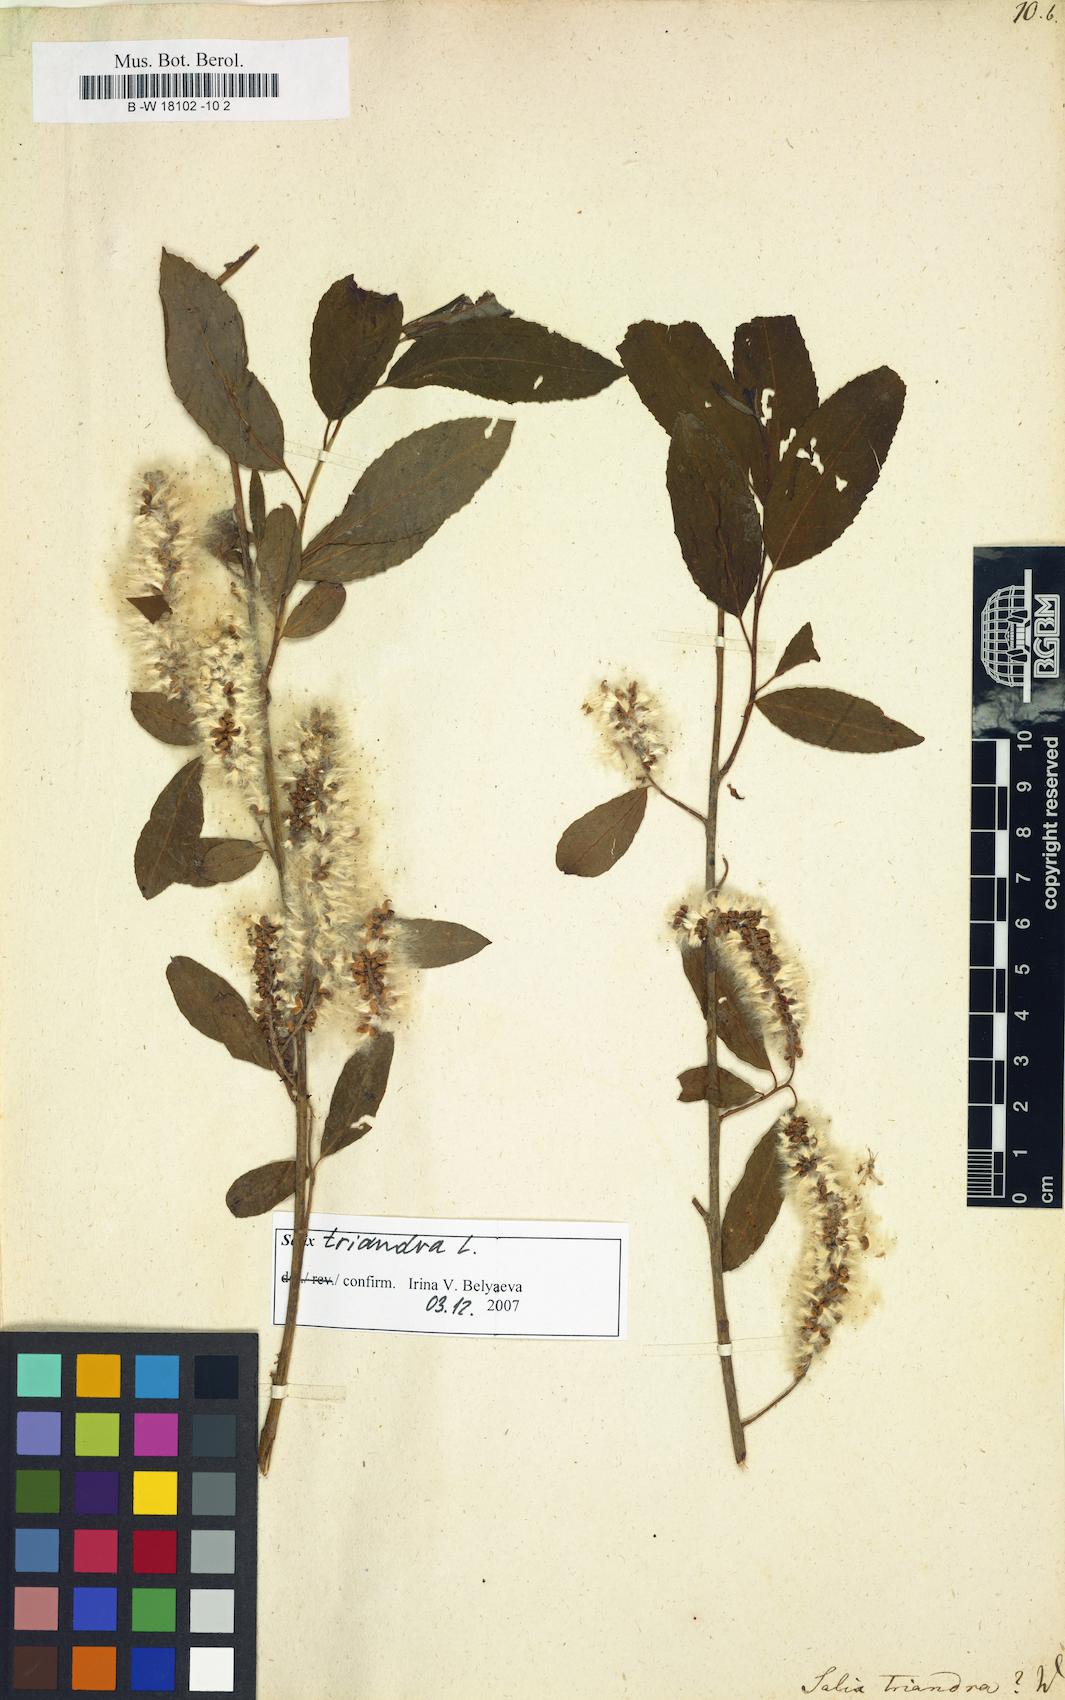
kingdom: Plantae
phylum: Tracheophyta
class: Magnoliopsida
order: Malpighiales
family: Salicaceae
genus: Salix
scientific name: Salix triandra
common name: Almond willow
